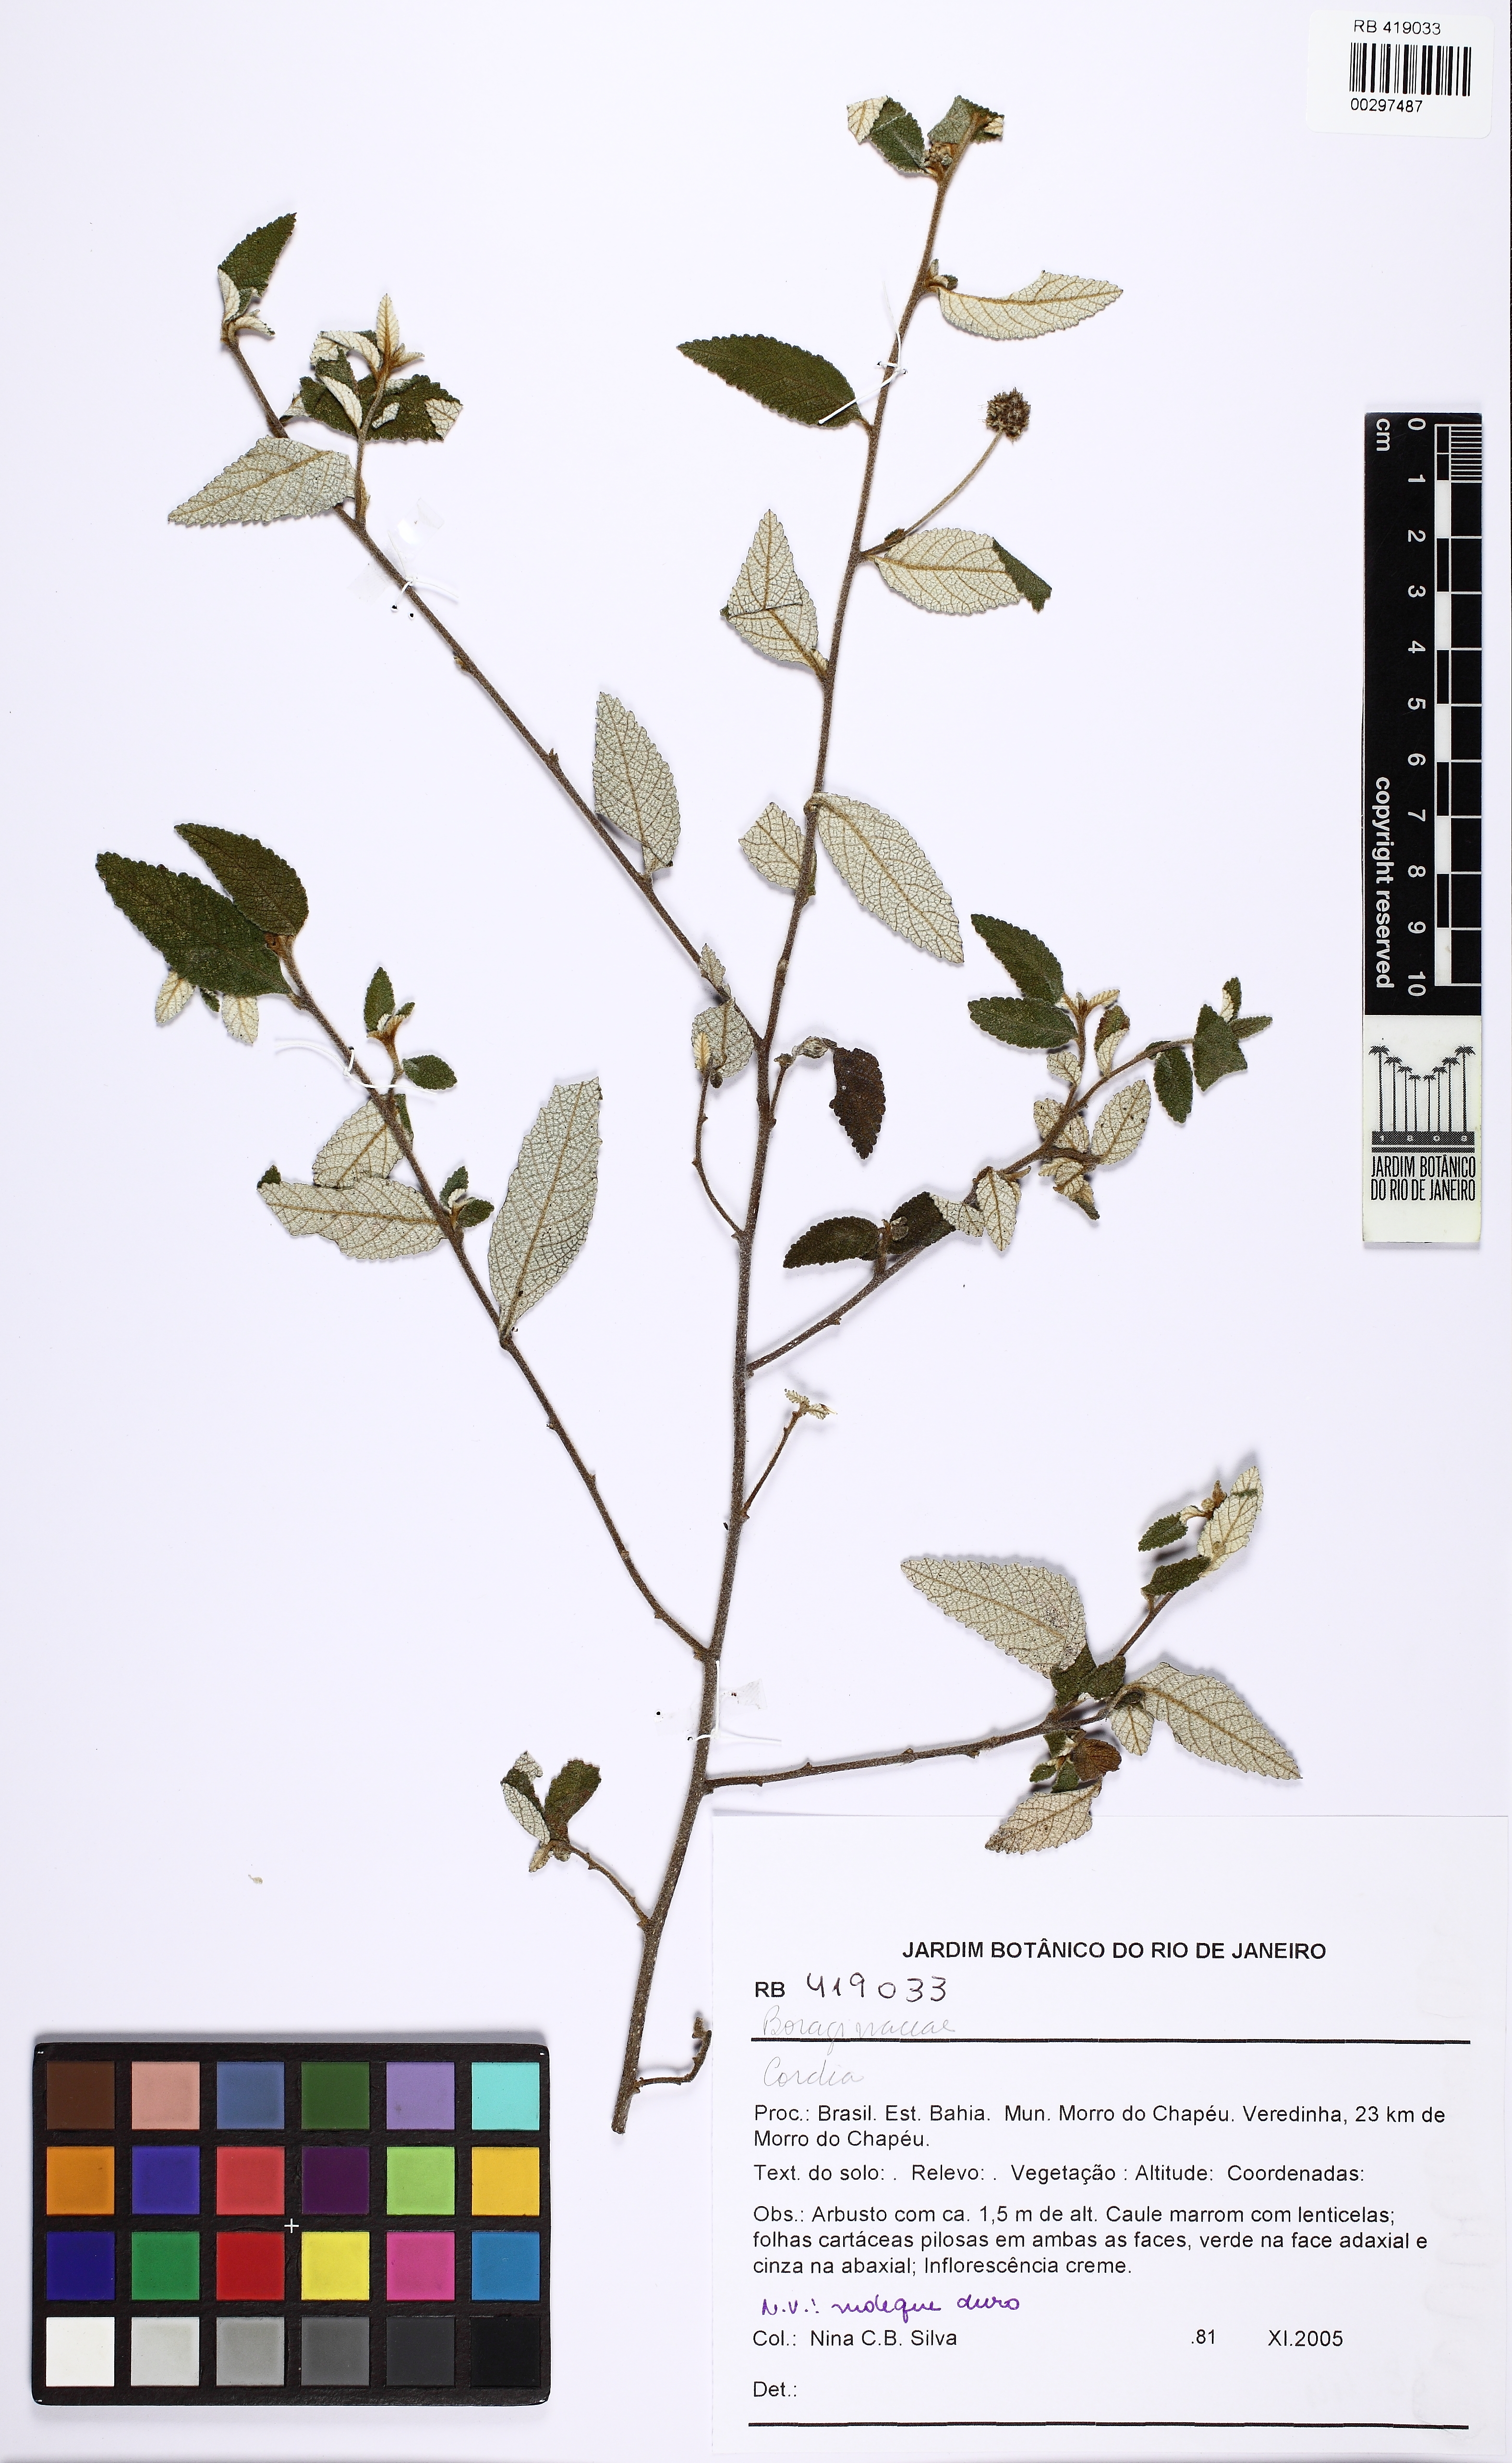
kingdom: Plantae
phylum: Tracheophyta
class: Magnoliopsida
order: Boraginales
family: Cordiaceae
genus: Cordia
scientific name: Cordia
